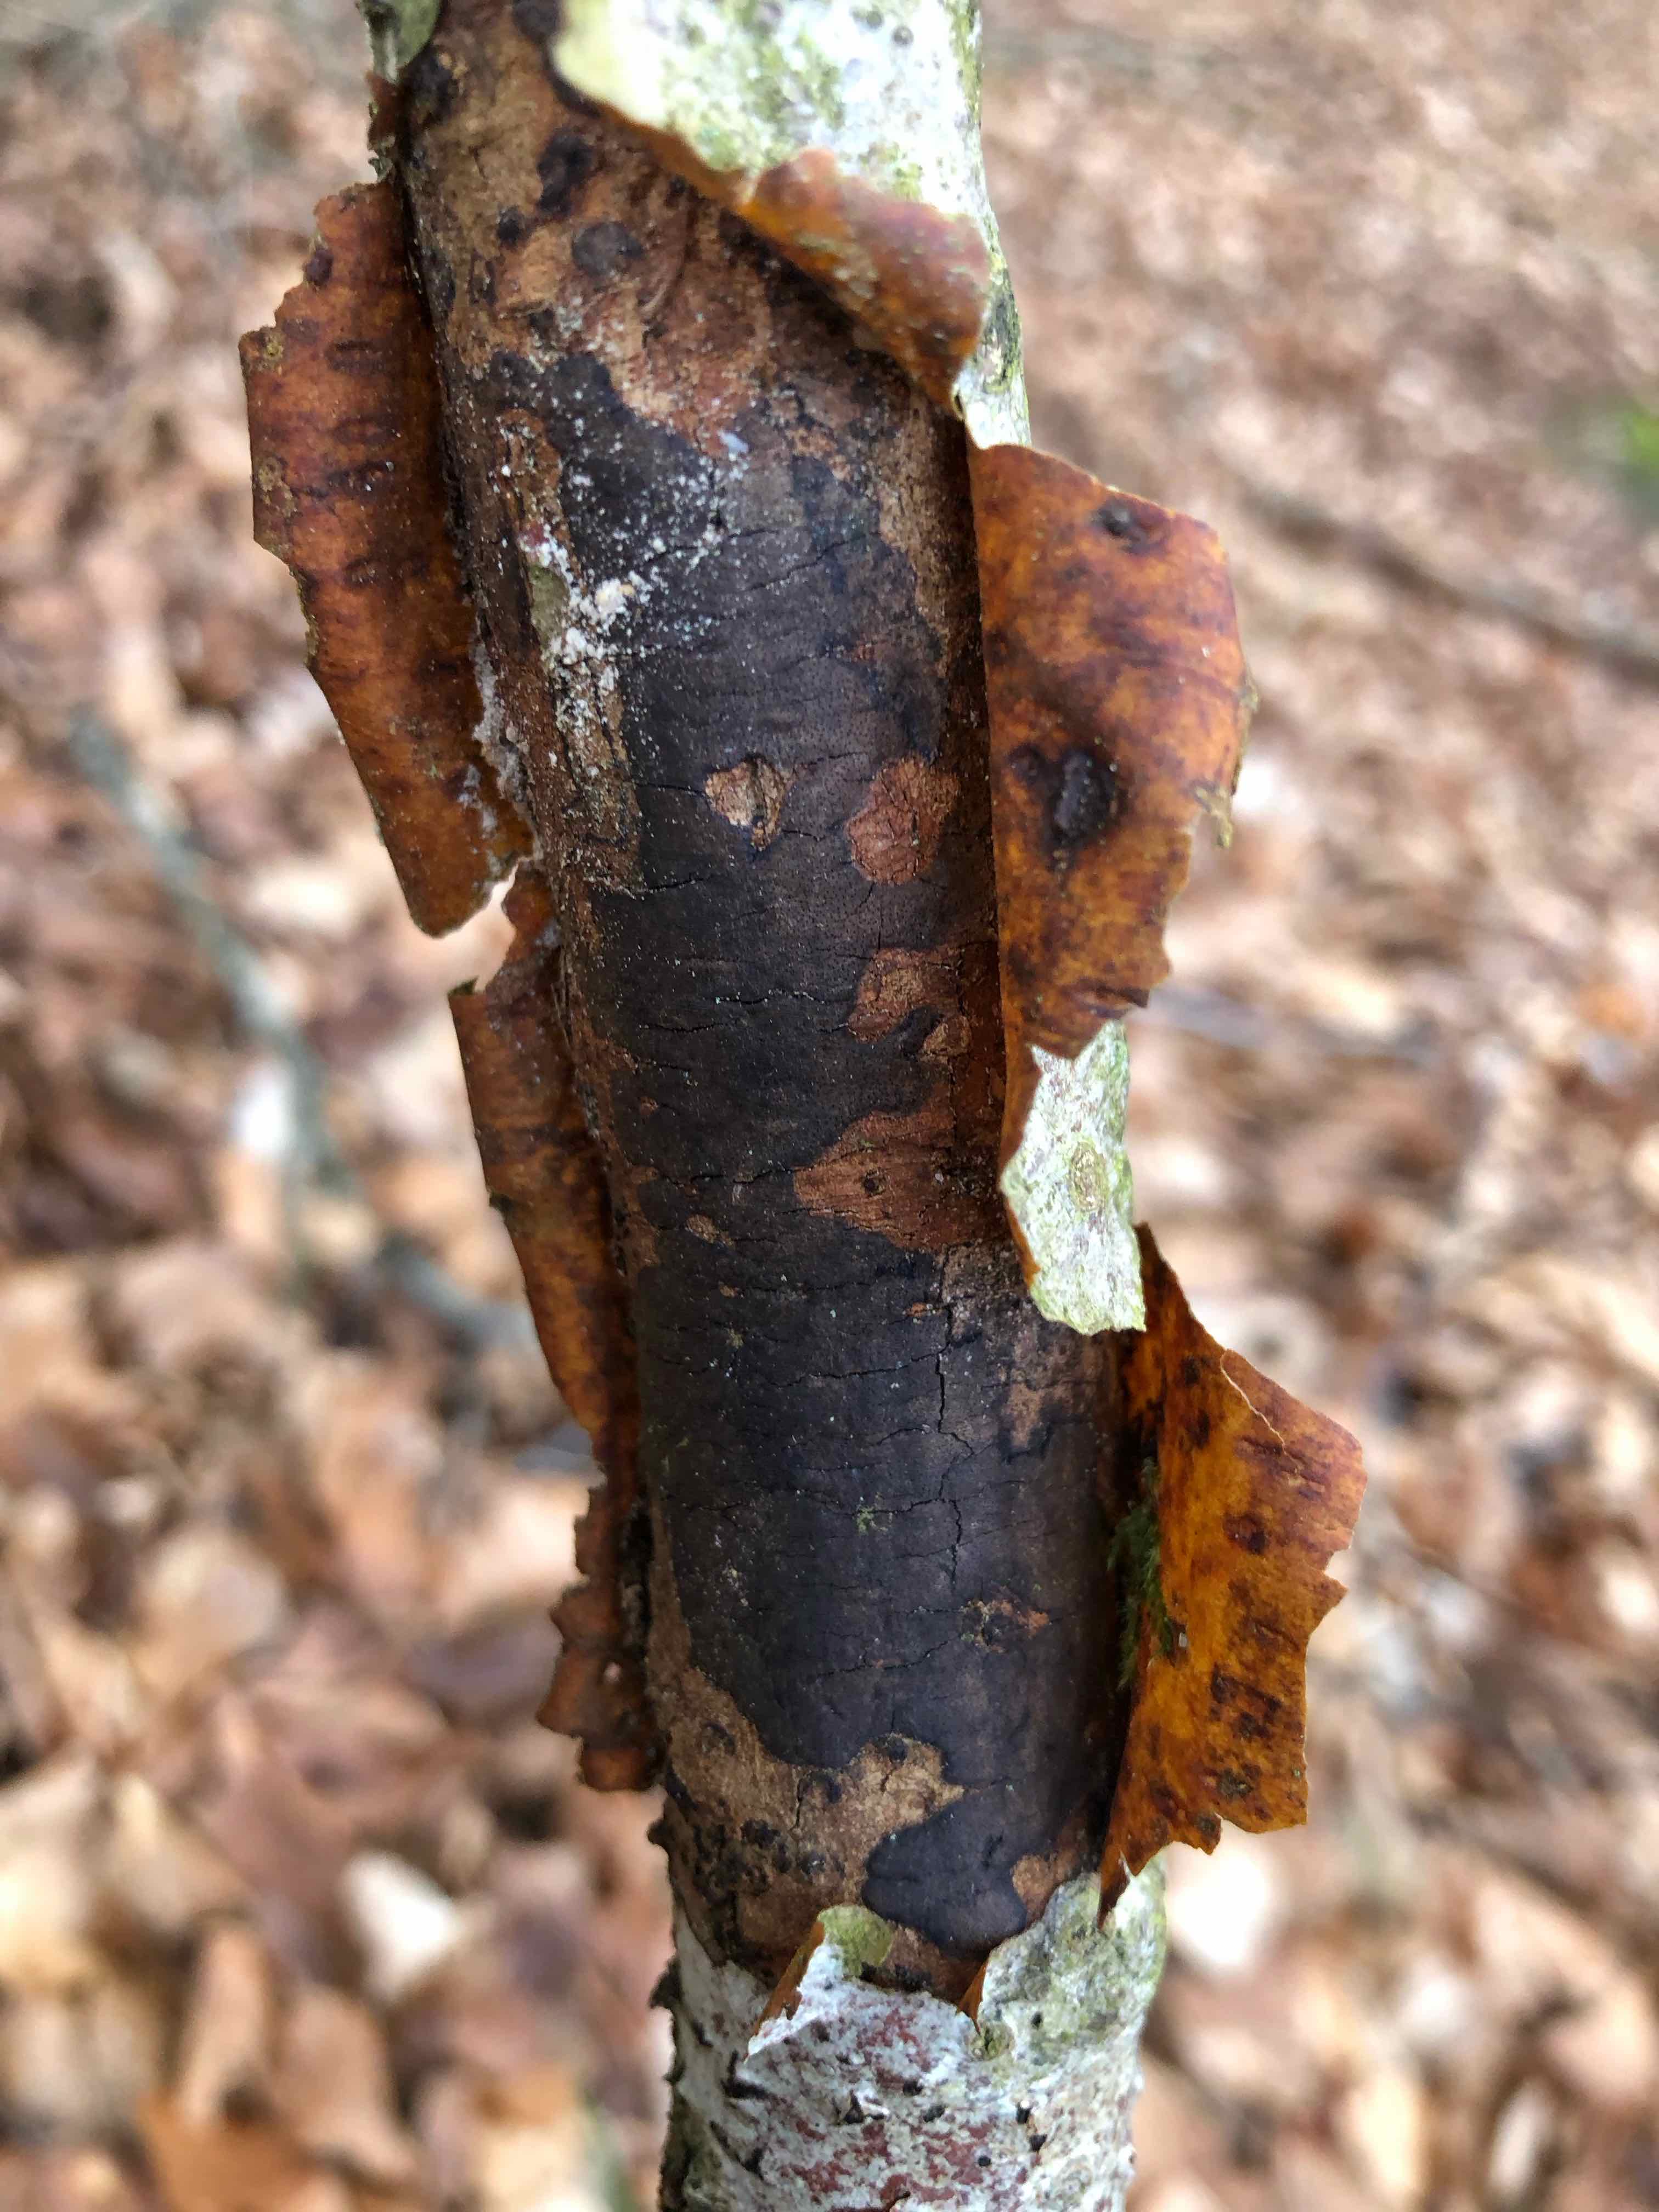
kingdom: Fungi
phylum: Ascomycota
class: Sordariomycetes
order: Xylariales
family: Diatrypaceae
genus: Diatrype
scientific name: Diatrype decorticata
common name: barksprænger-kulskorpe
